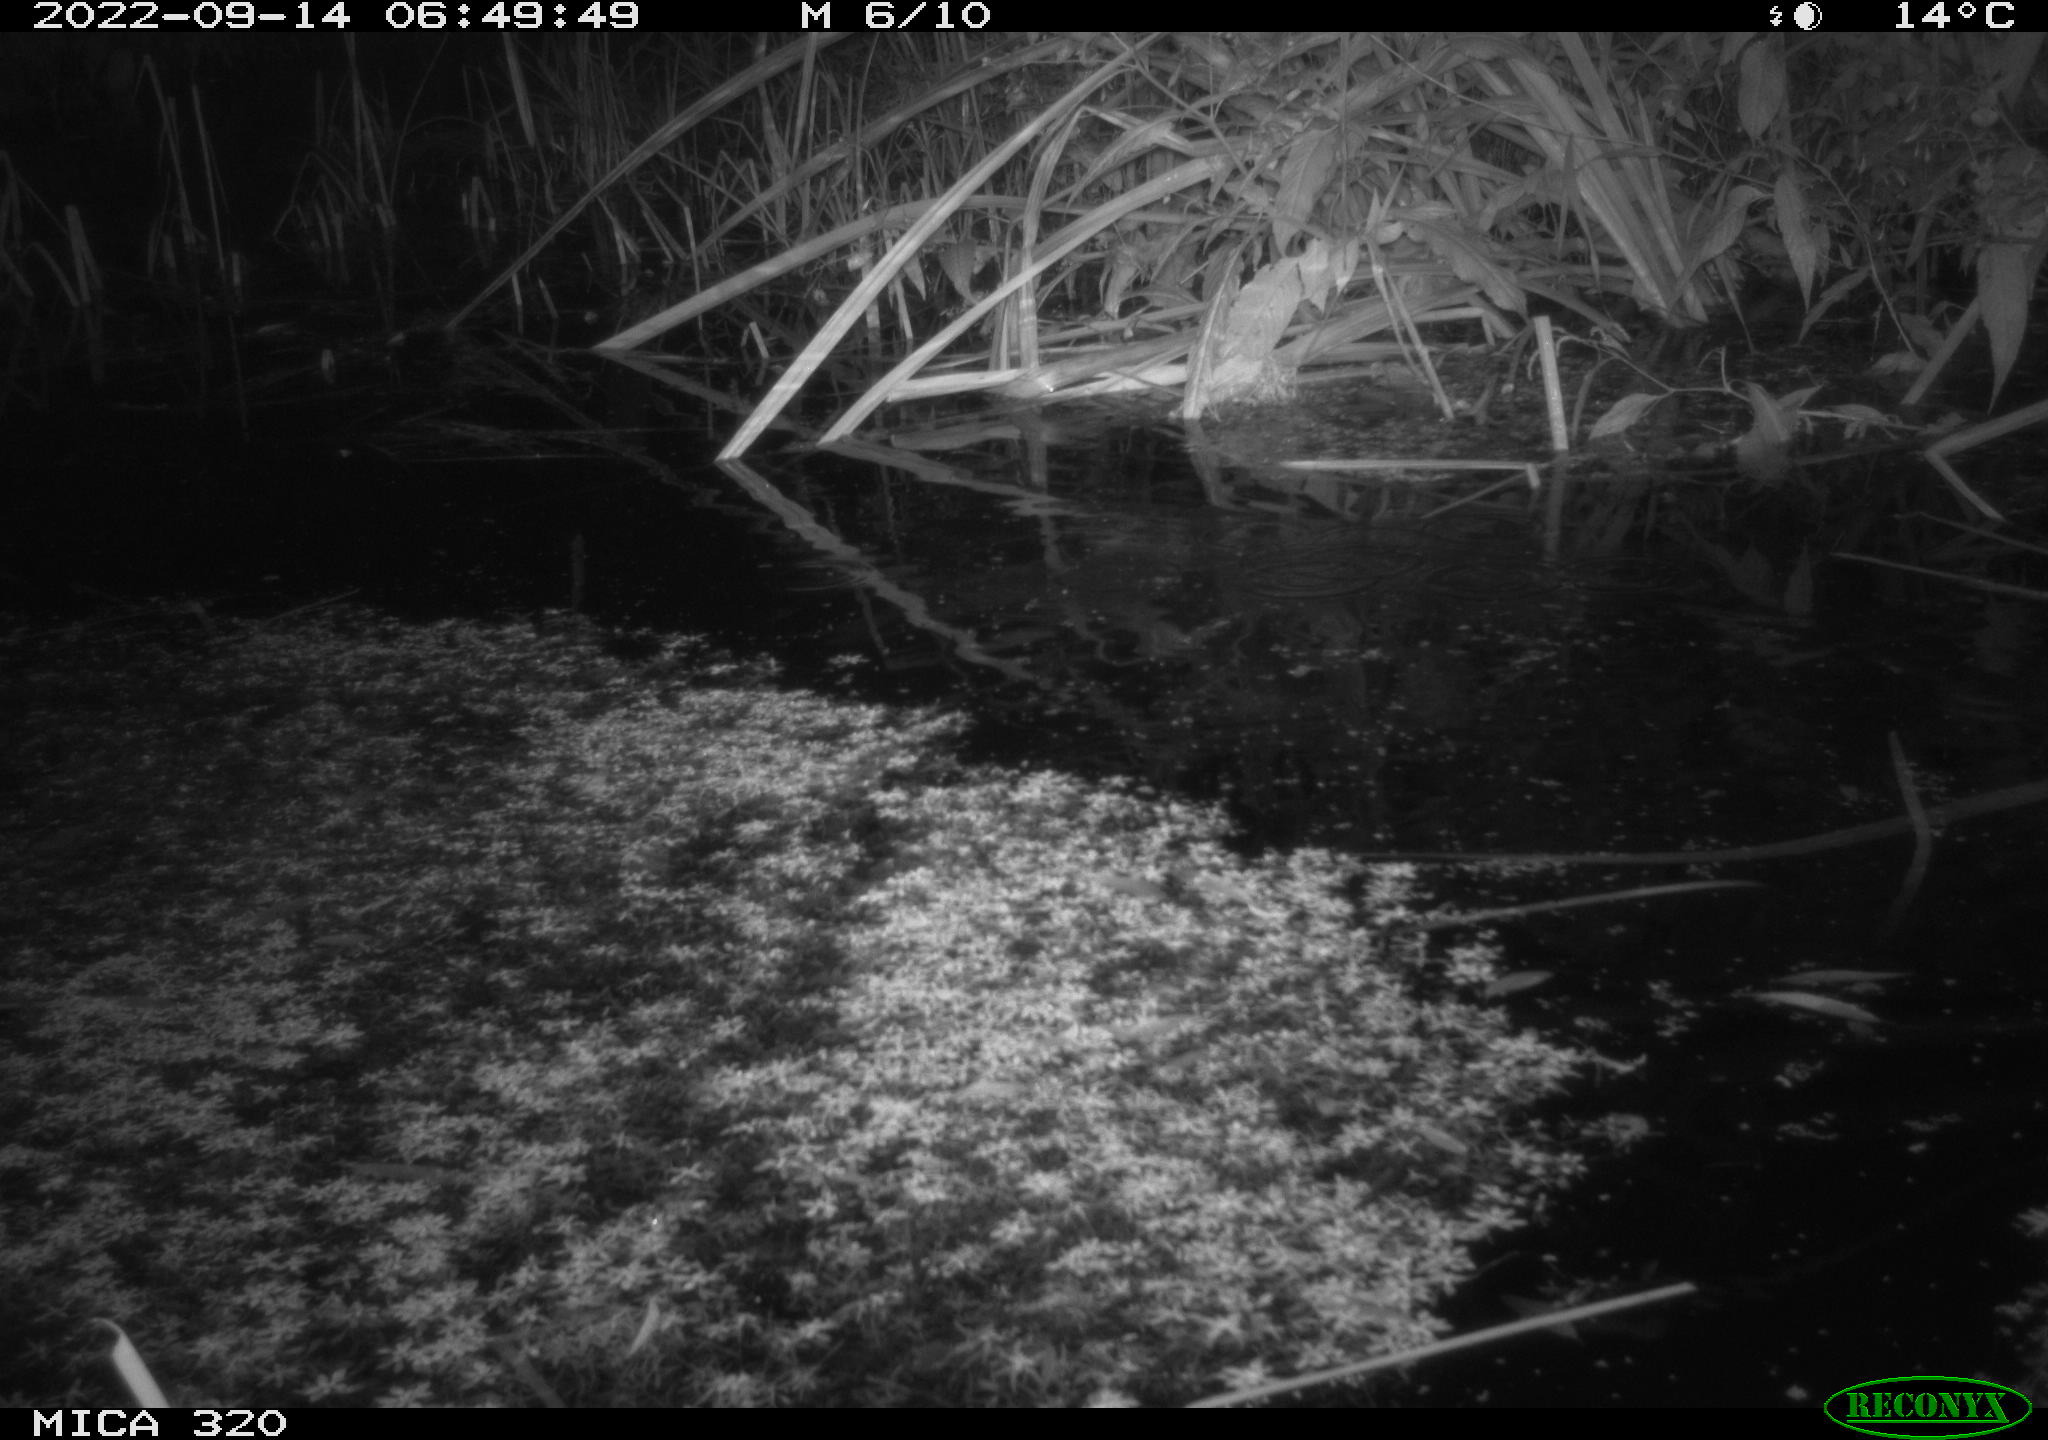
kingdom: Animalia
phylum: Chordata
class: Mammalia
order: Rodentia
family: Muridae
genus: Rattus
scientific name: Rattus norvegicus
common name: Brown rat
